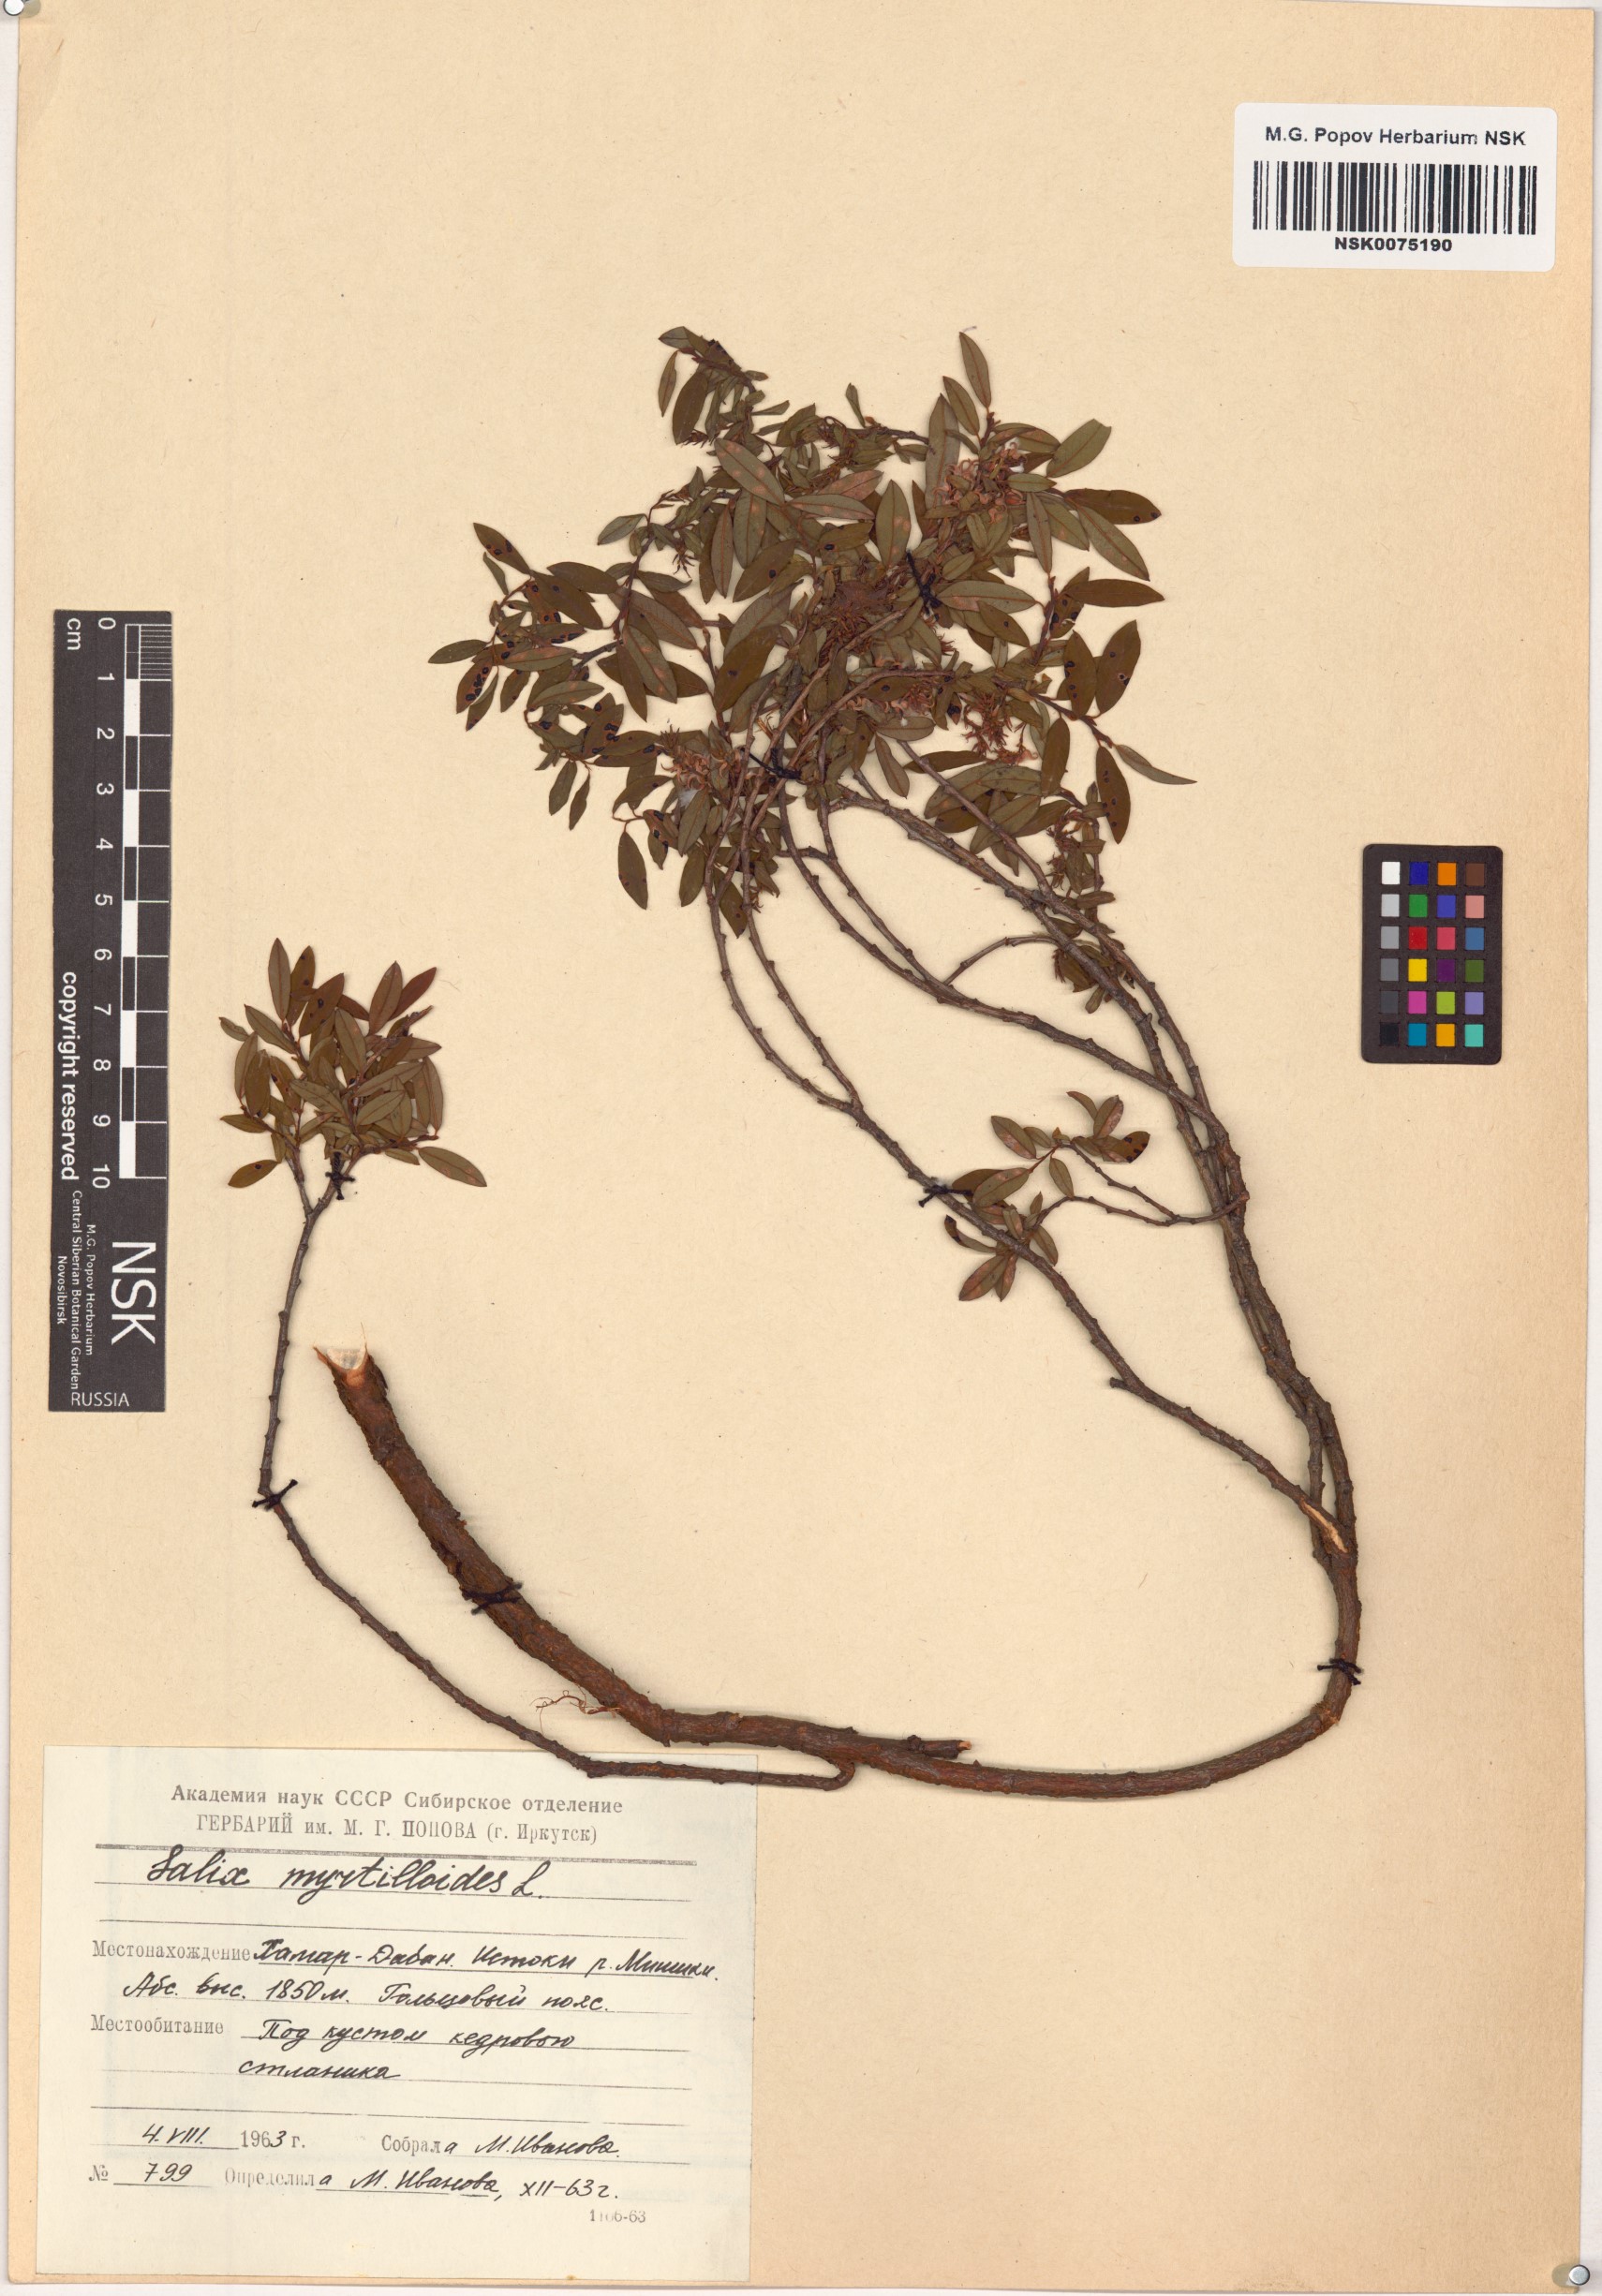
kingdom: Plantae
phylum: Tracheophyta
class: Magnoliopsida
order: Malpighiales
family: Salicaceae
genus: Salix
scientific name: Salix myrtilloides
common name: Myrtle-leaved willow
